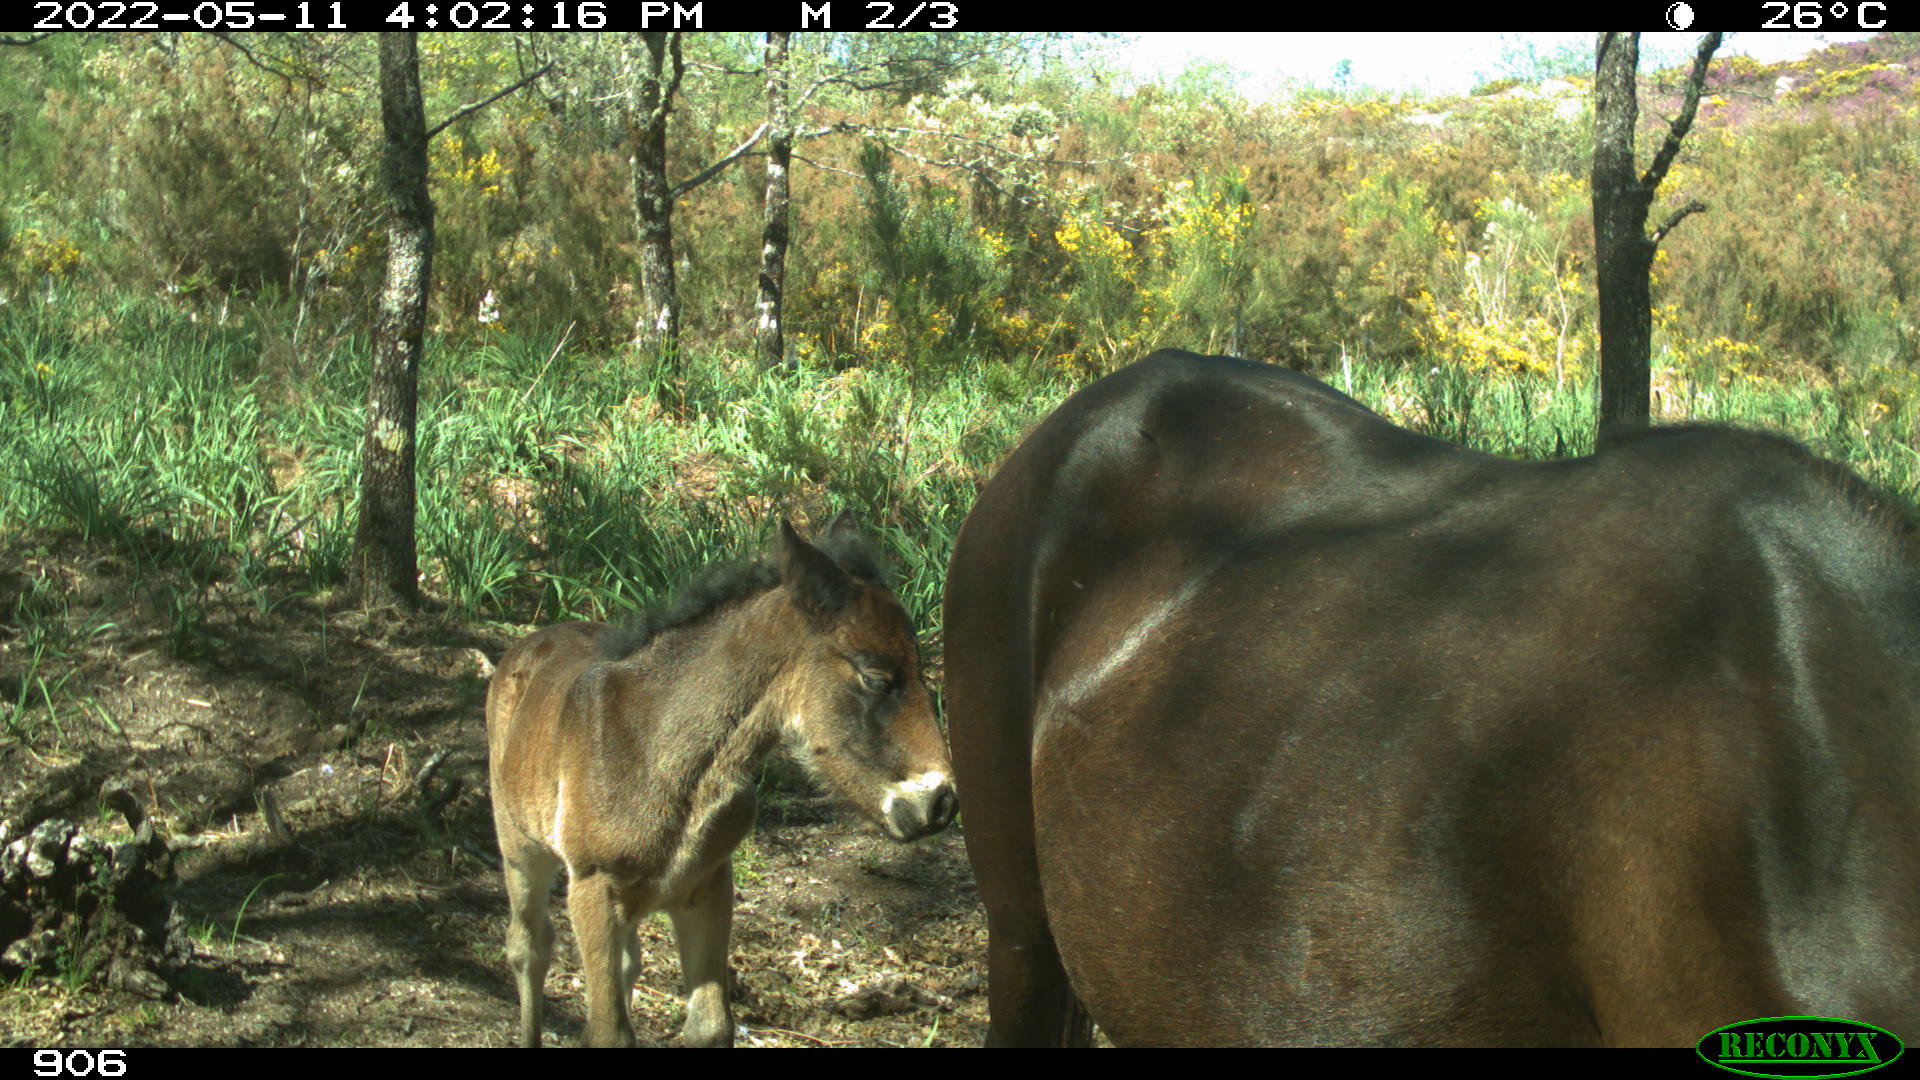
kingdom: Animalia
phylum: Chordata
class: Mammalia
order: Perissodactyla
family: Equidae
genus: Equus
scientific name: Equus caballus
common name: Horse
